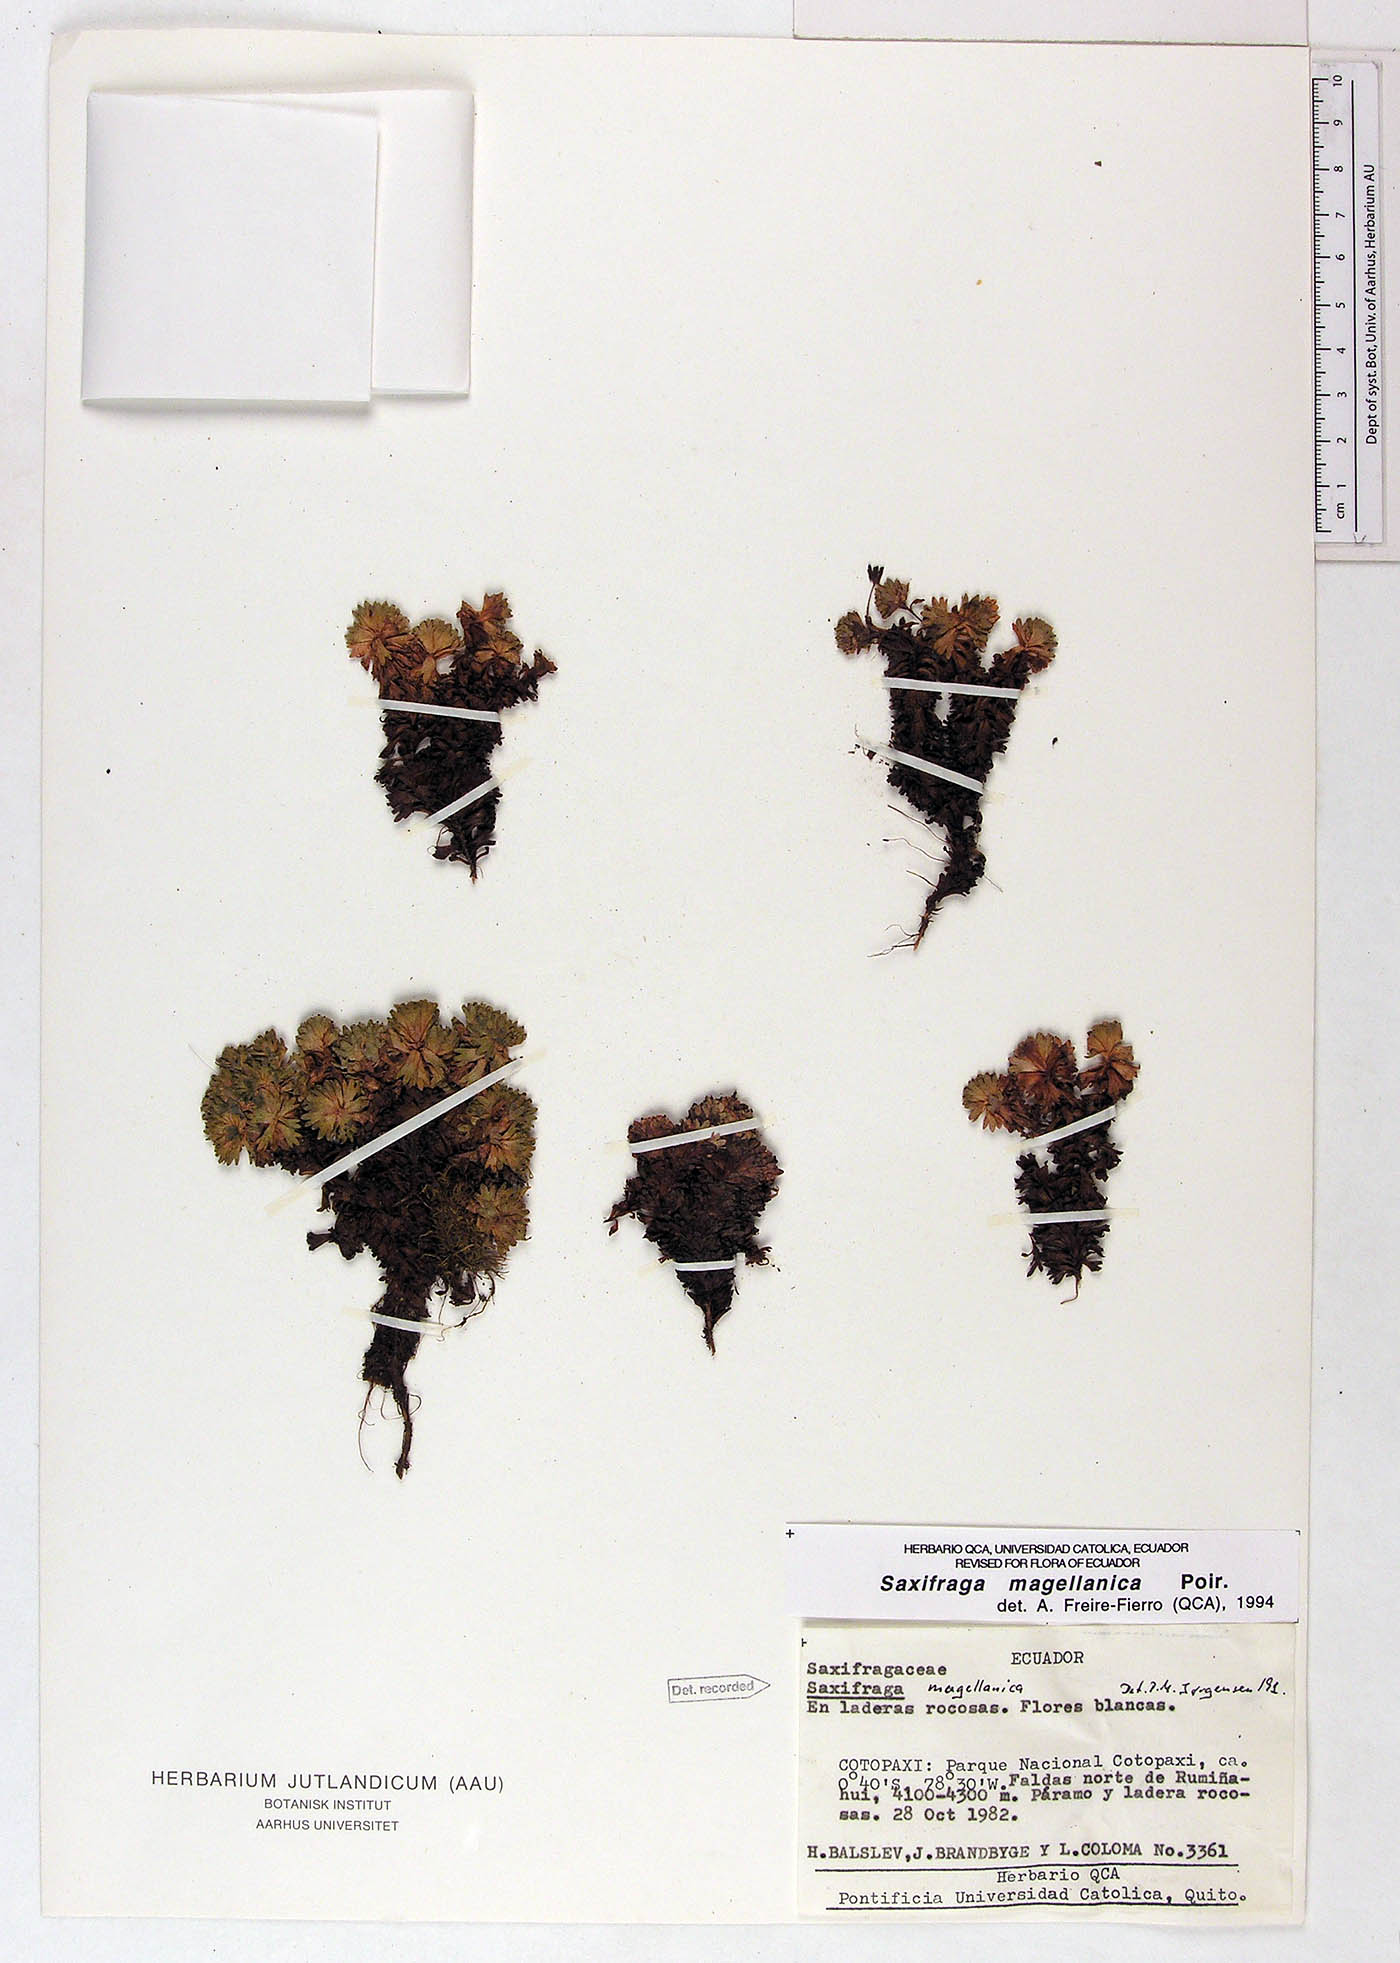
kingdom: Plantae
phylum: Tracheophyta
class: Magnoliopsida
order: Saxifragales
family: Saxifragaceae
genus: Saxifraga
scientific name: Saxifraga magellanica
